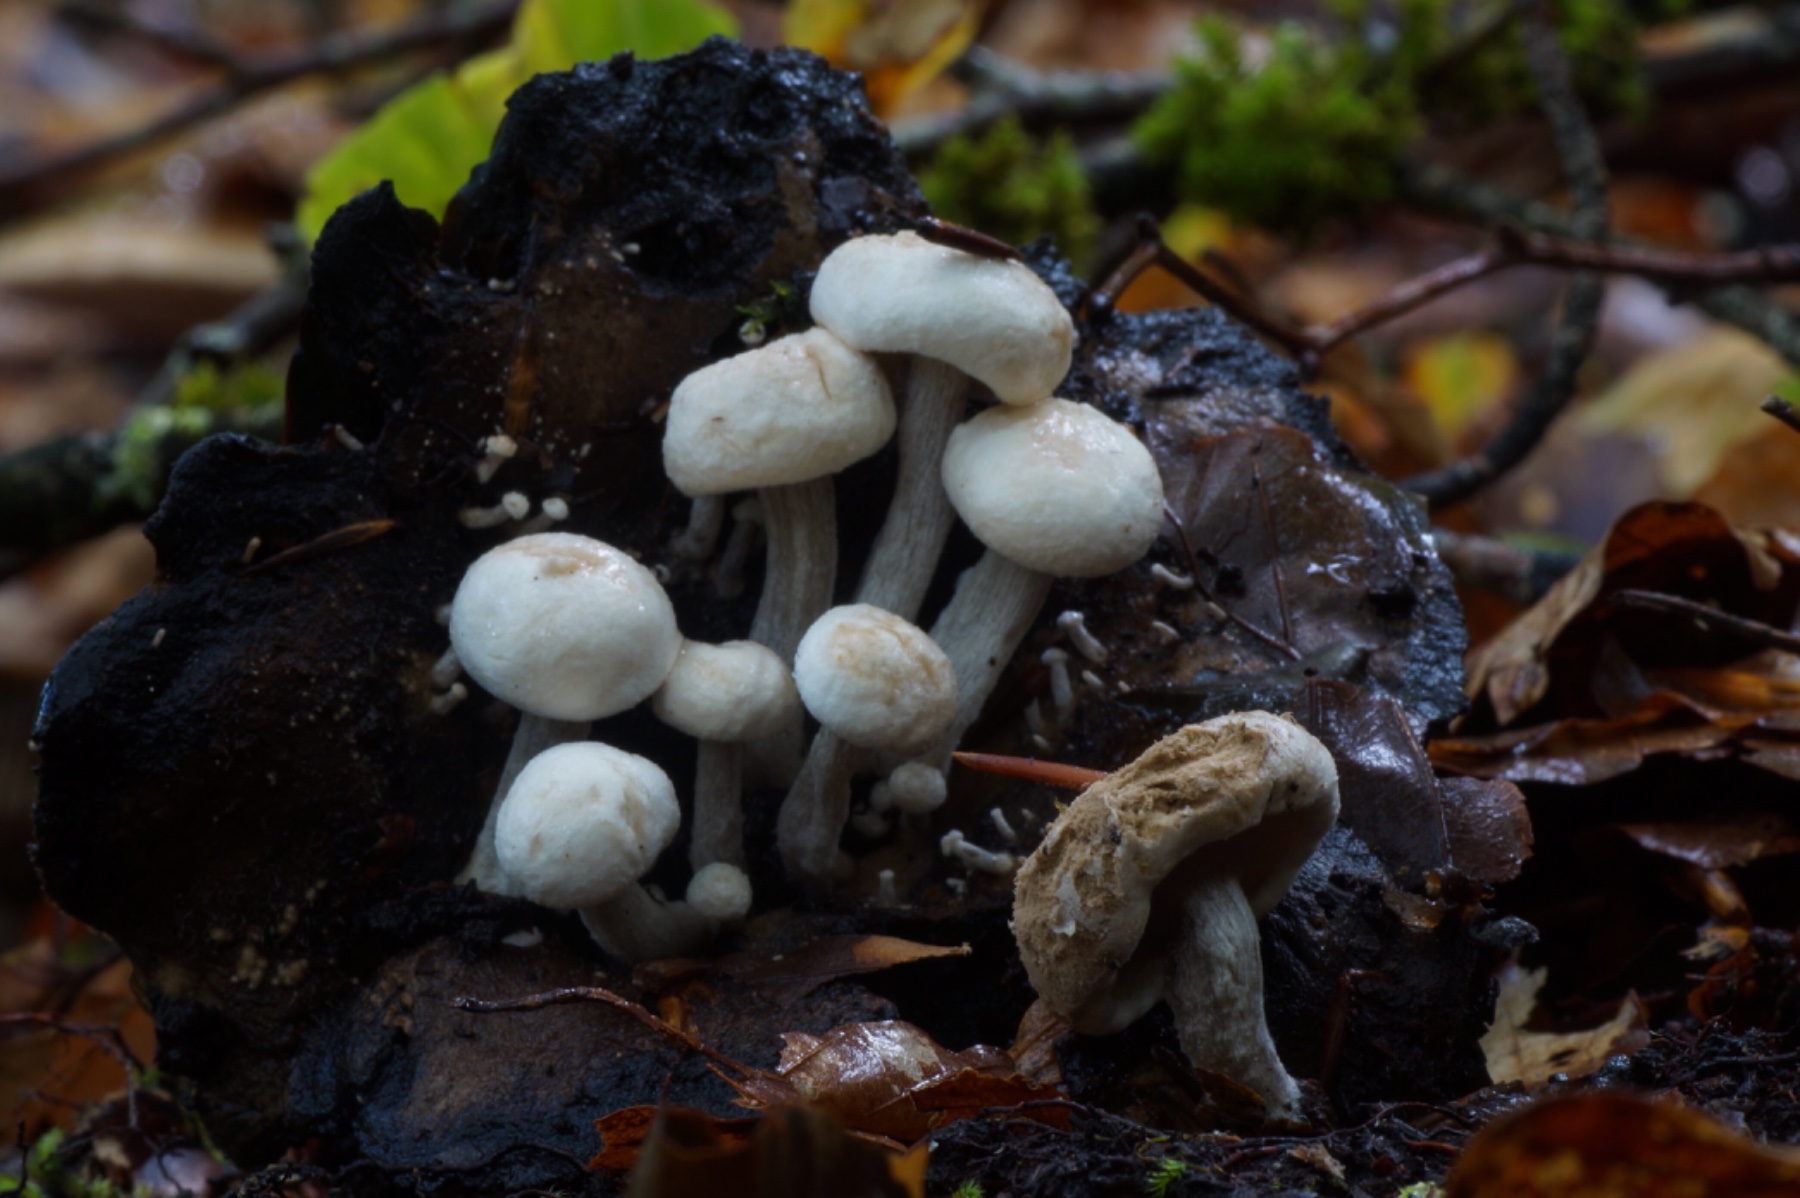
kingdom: Fungi
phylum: Basidiomycota
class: Agaricomycetes
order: Agaricales
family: Lyophyllaceae
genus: Asterophora
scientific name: Asterophora lycoperdoides
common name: brunpudret snyltehat
